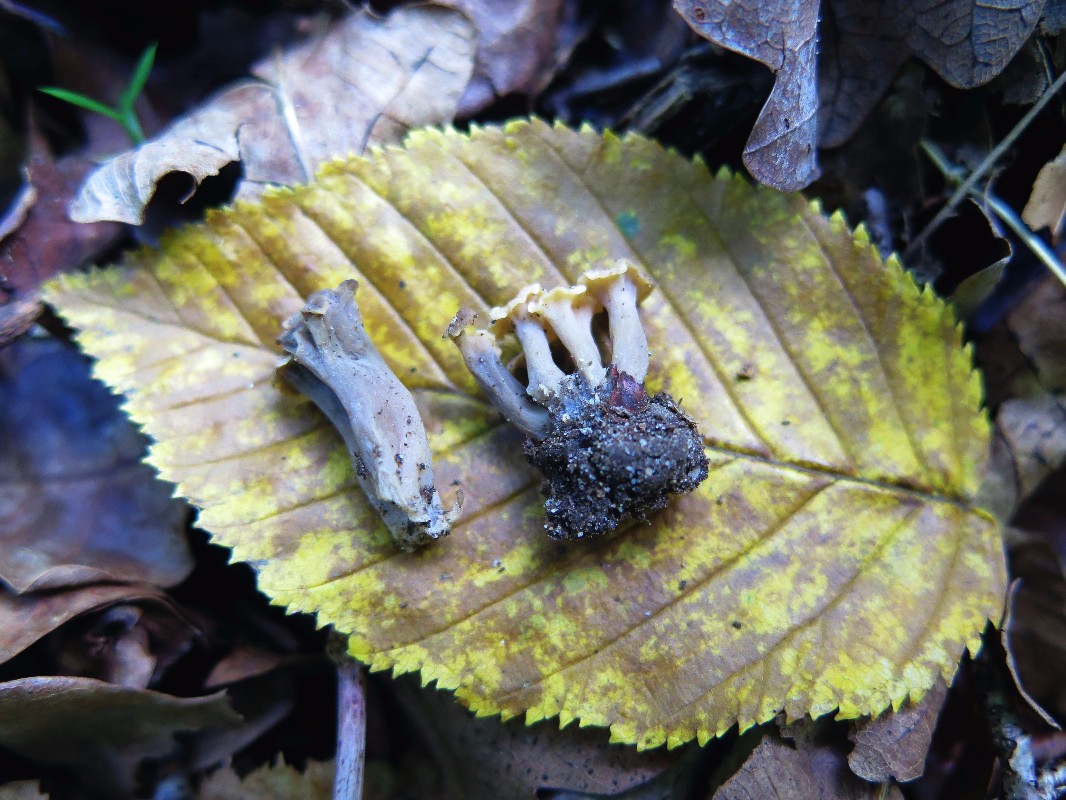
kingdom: Fungi
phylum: Basidiomycota
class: Agaricomycetes
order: Cantharellales
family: Hydnaceae
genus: Craterellus
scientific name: Craterellus undulatus
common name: liden kantarel
